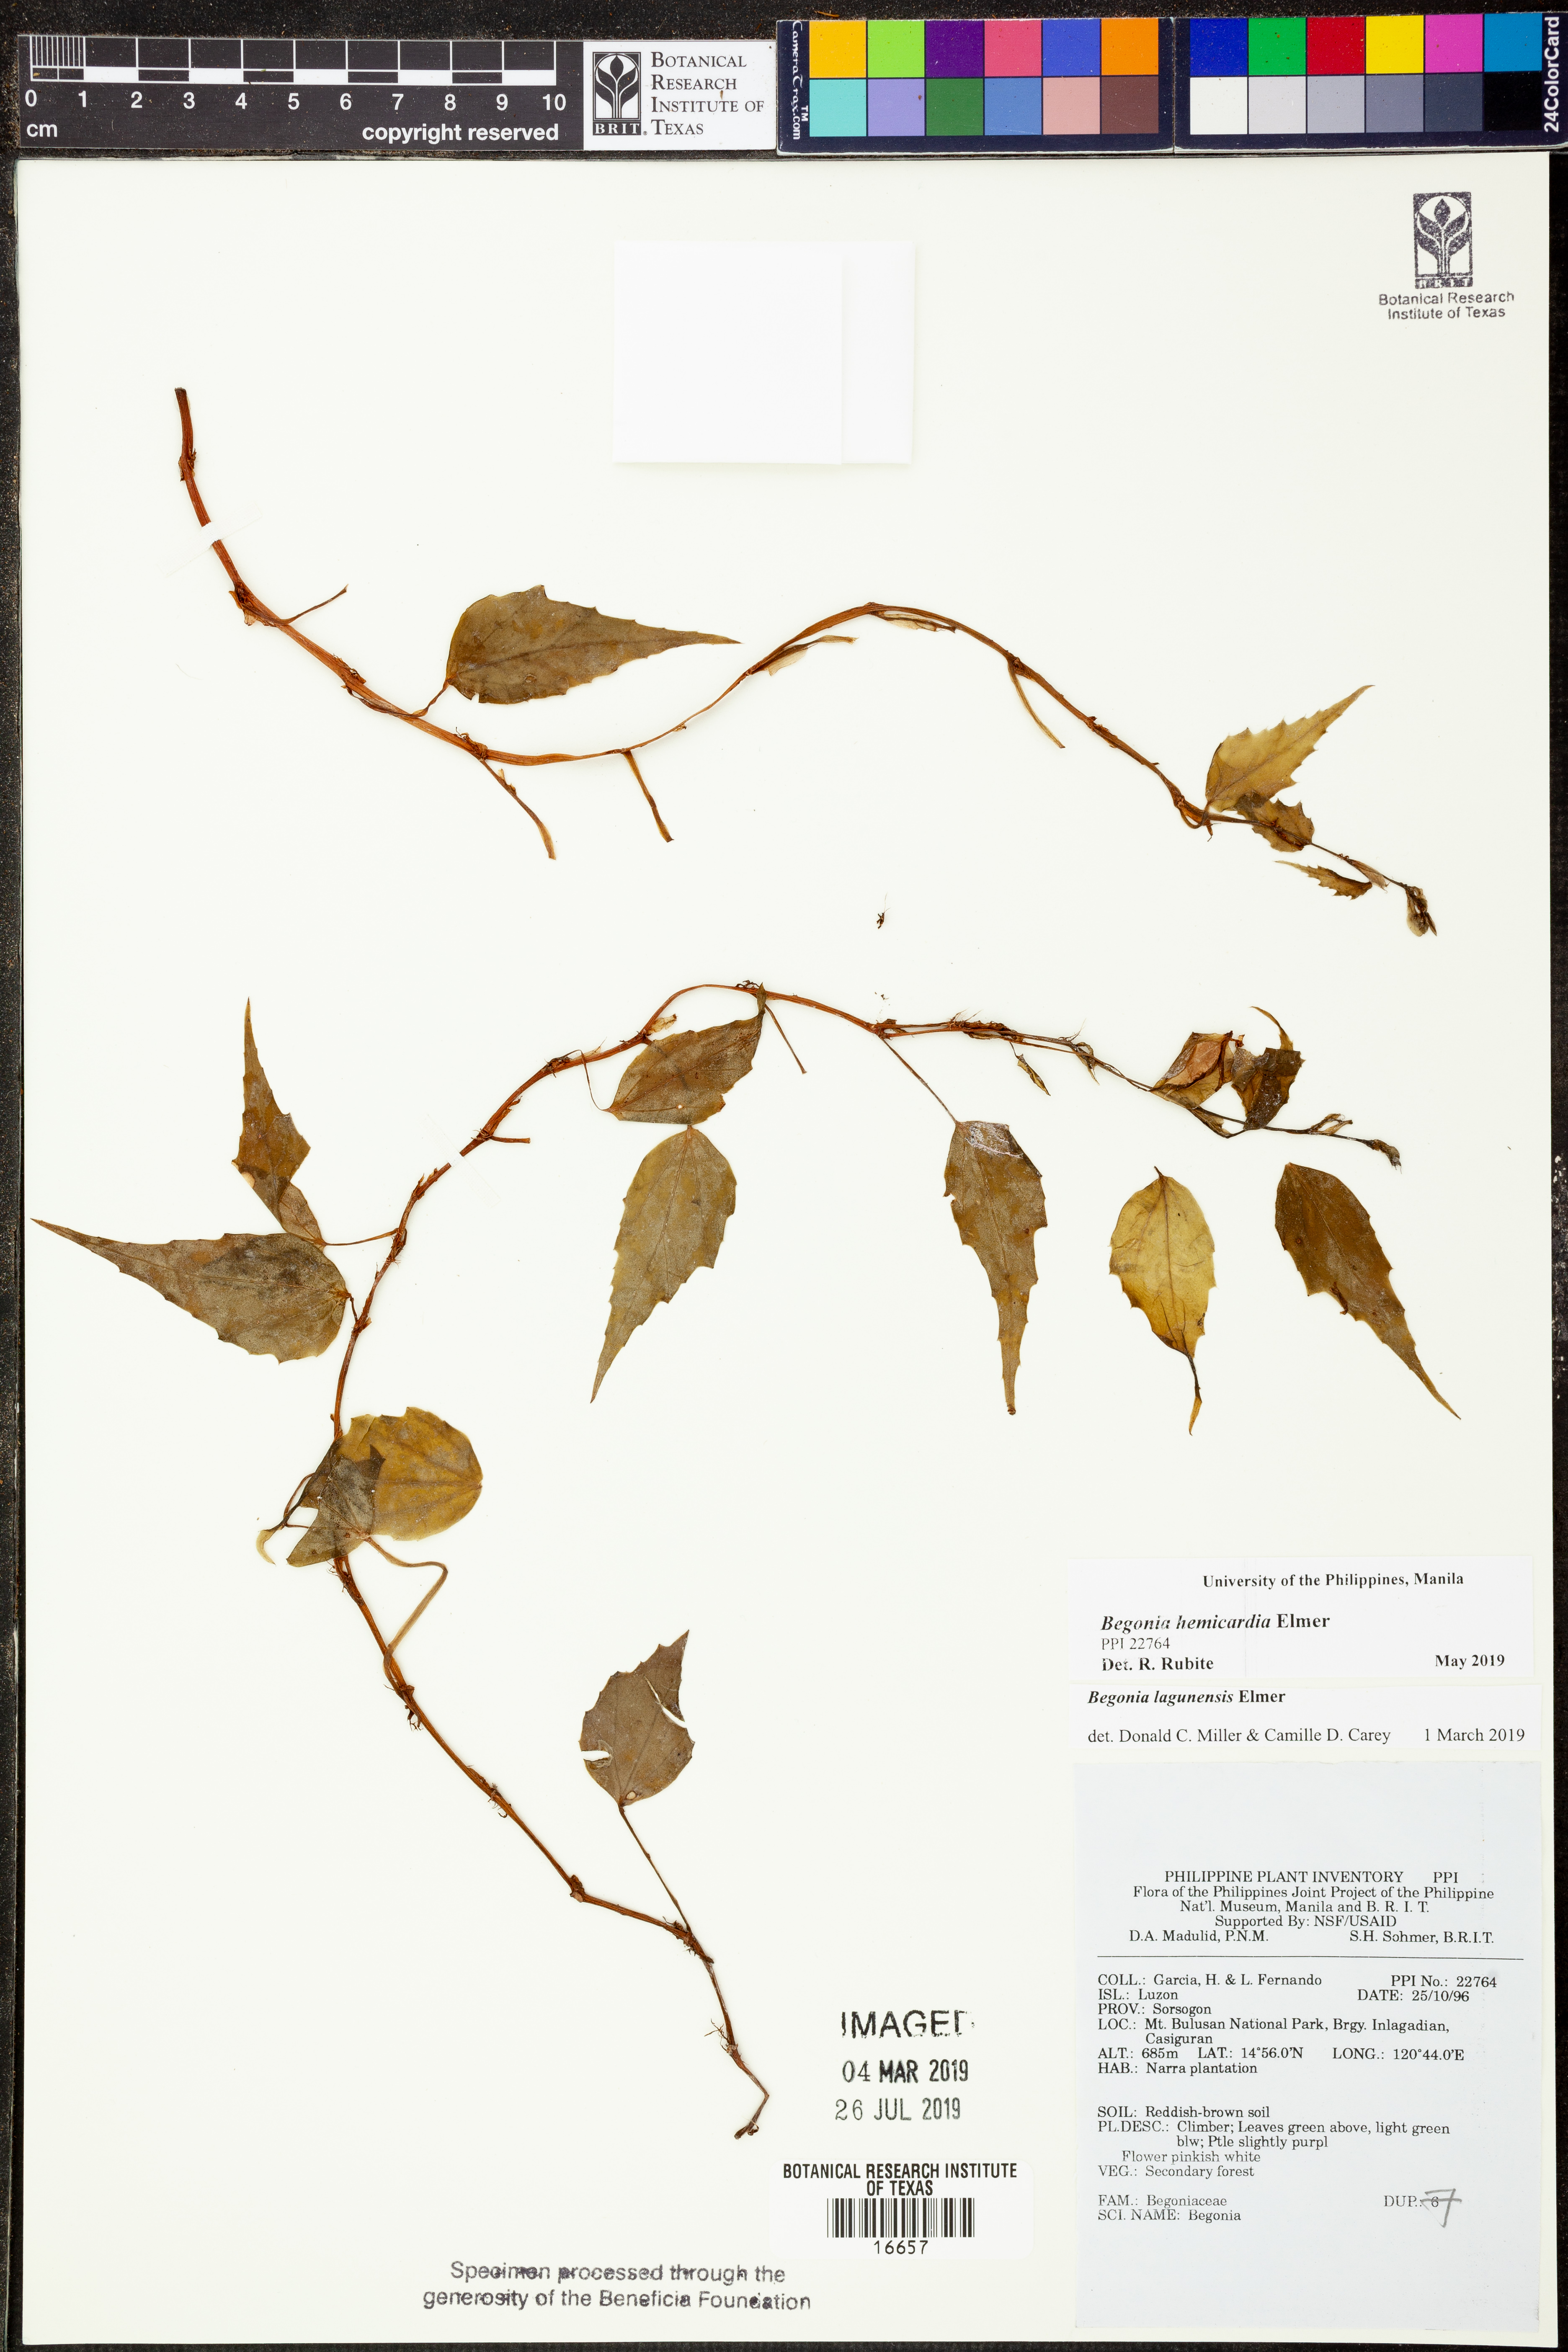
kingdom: Plantae
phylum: Tracheophyta
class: Magnoliopsida
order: Cucurbitales
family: Begoniaceae
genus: Begonia
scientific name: Begonia lagunensis
